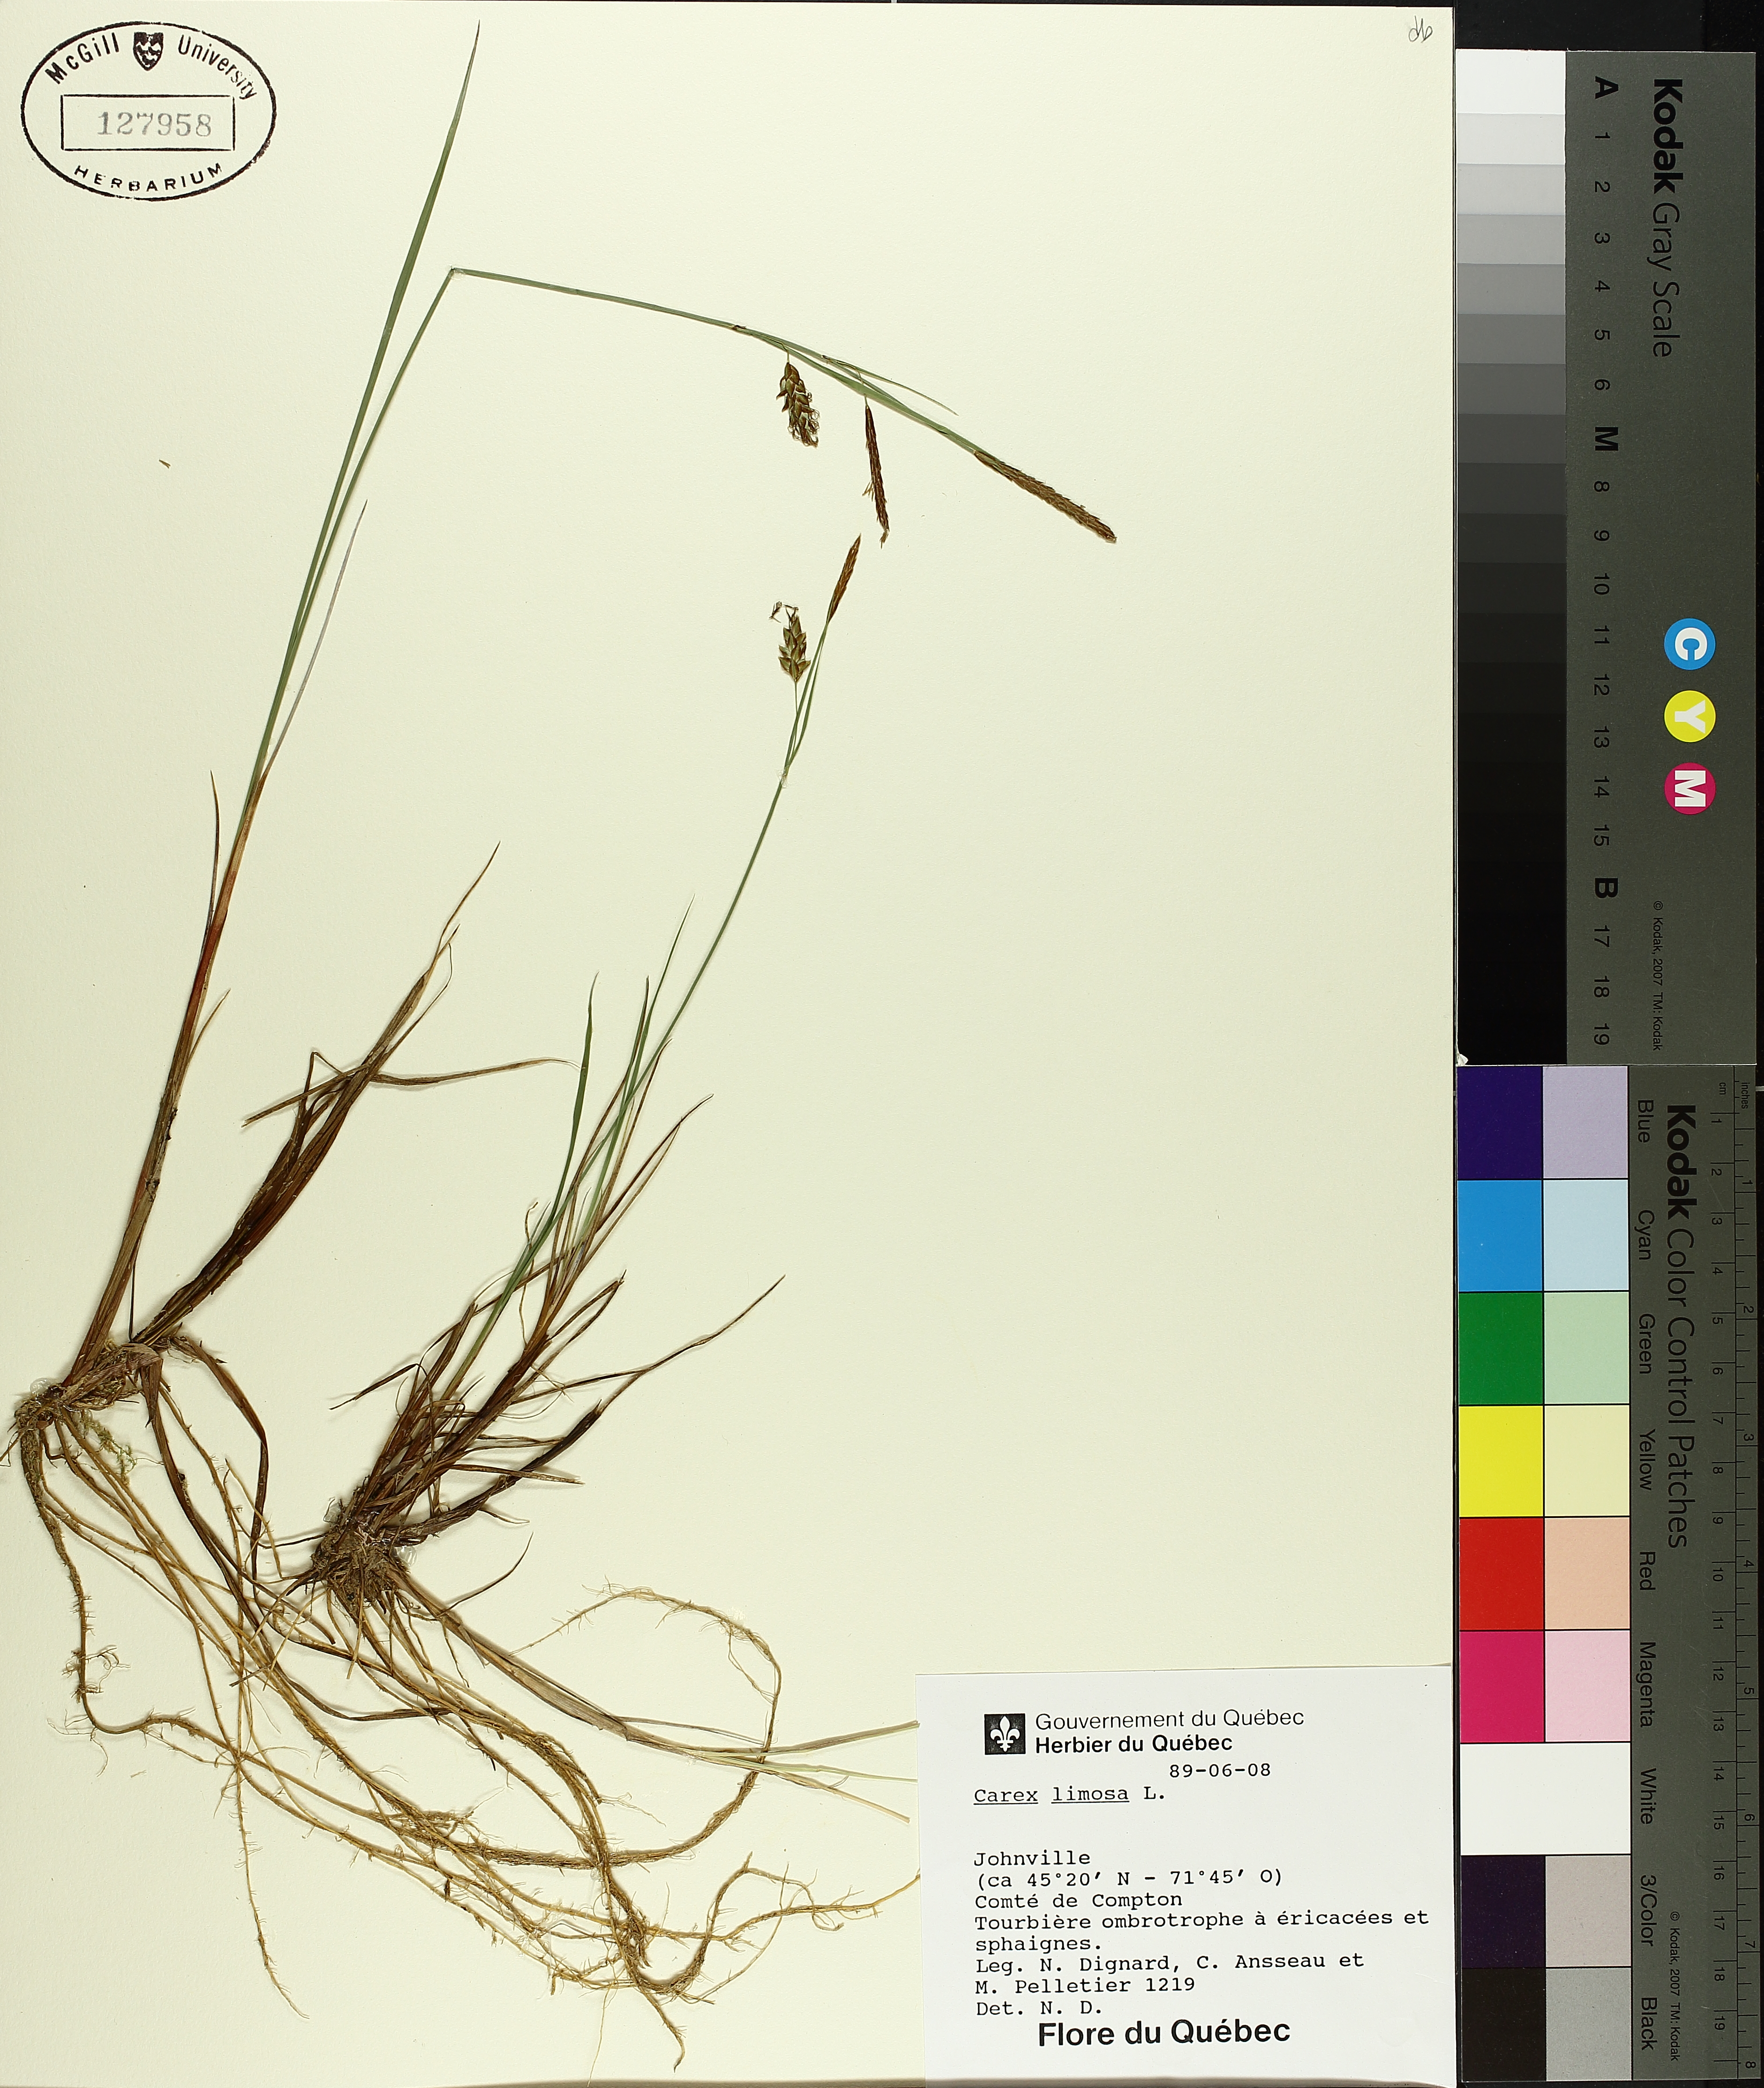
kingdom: Plantae
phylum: Tracheophyta
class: Liliopsida
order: Poales
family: Cyperaceae
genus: Carex
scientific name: Carex limosa
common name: Bog sedge
